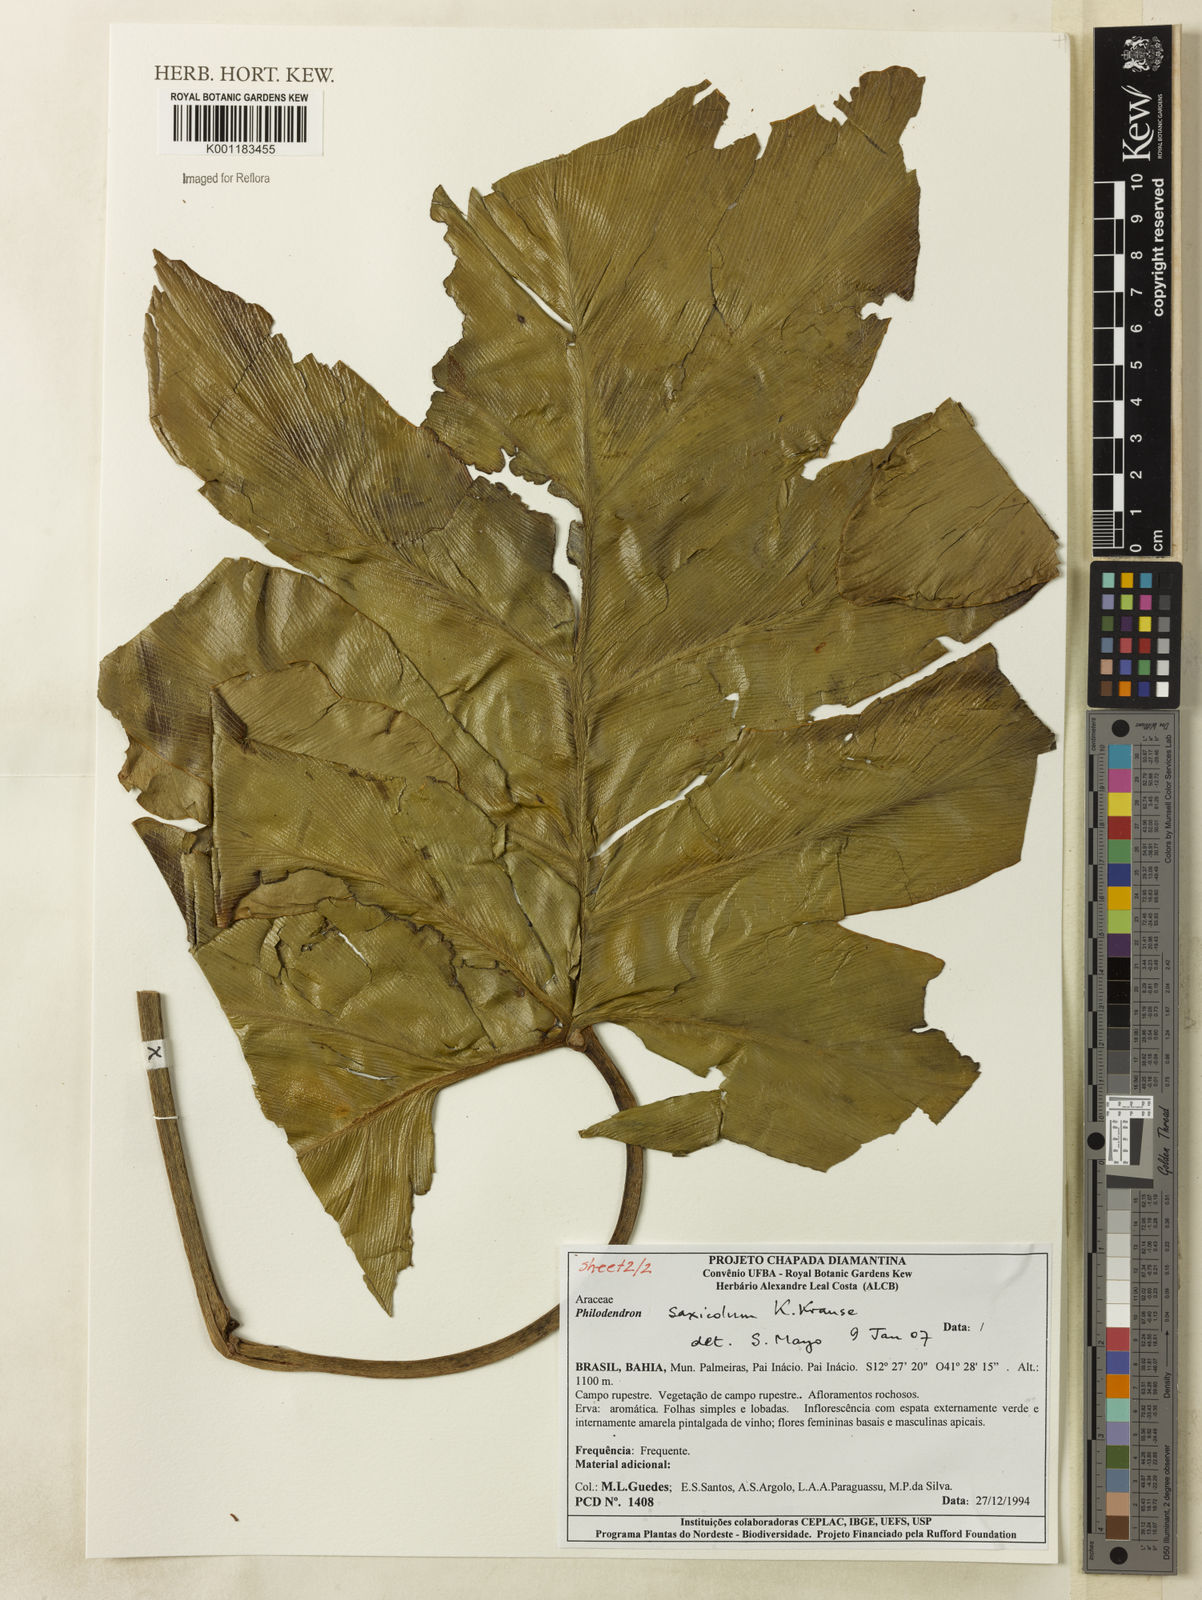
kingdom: Plantae
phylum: Tracheophyta
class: Liliopsida
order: Alismatales
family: Araceae
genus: Thaumatophyllum
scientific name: Thaumatophyllum saxicola
